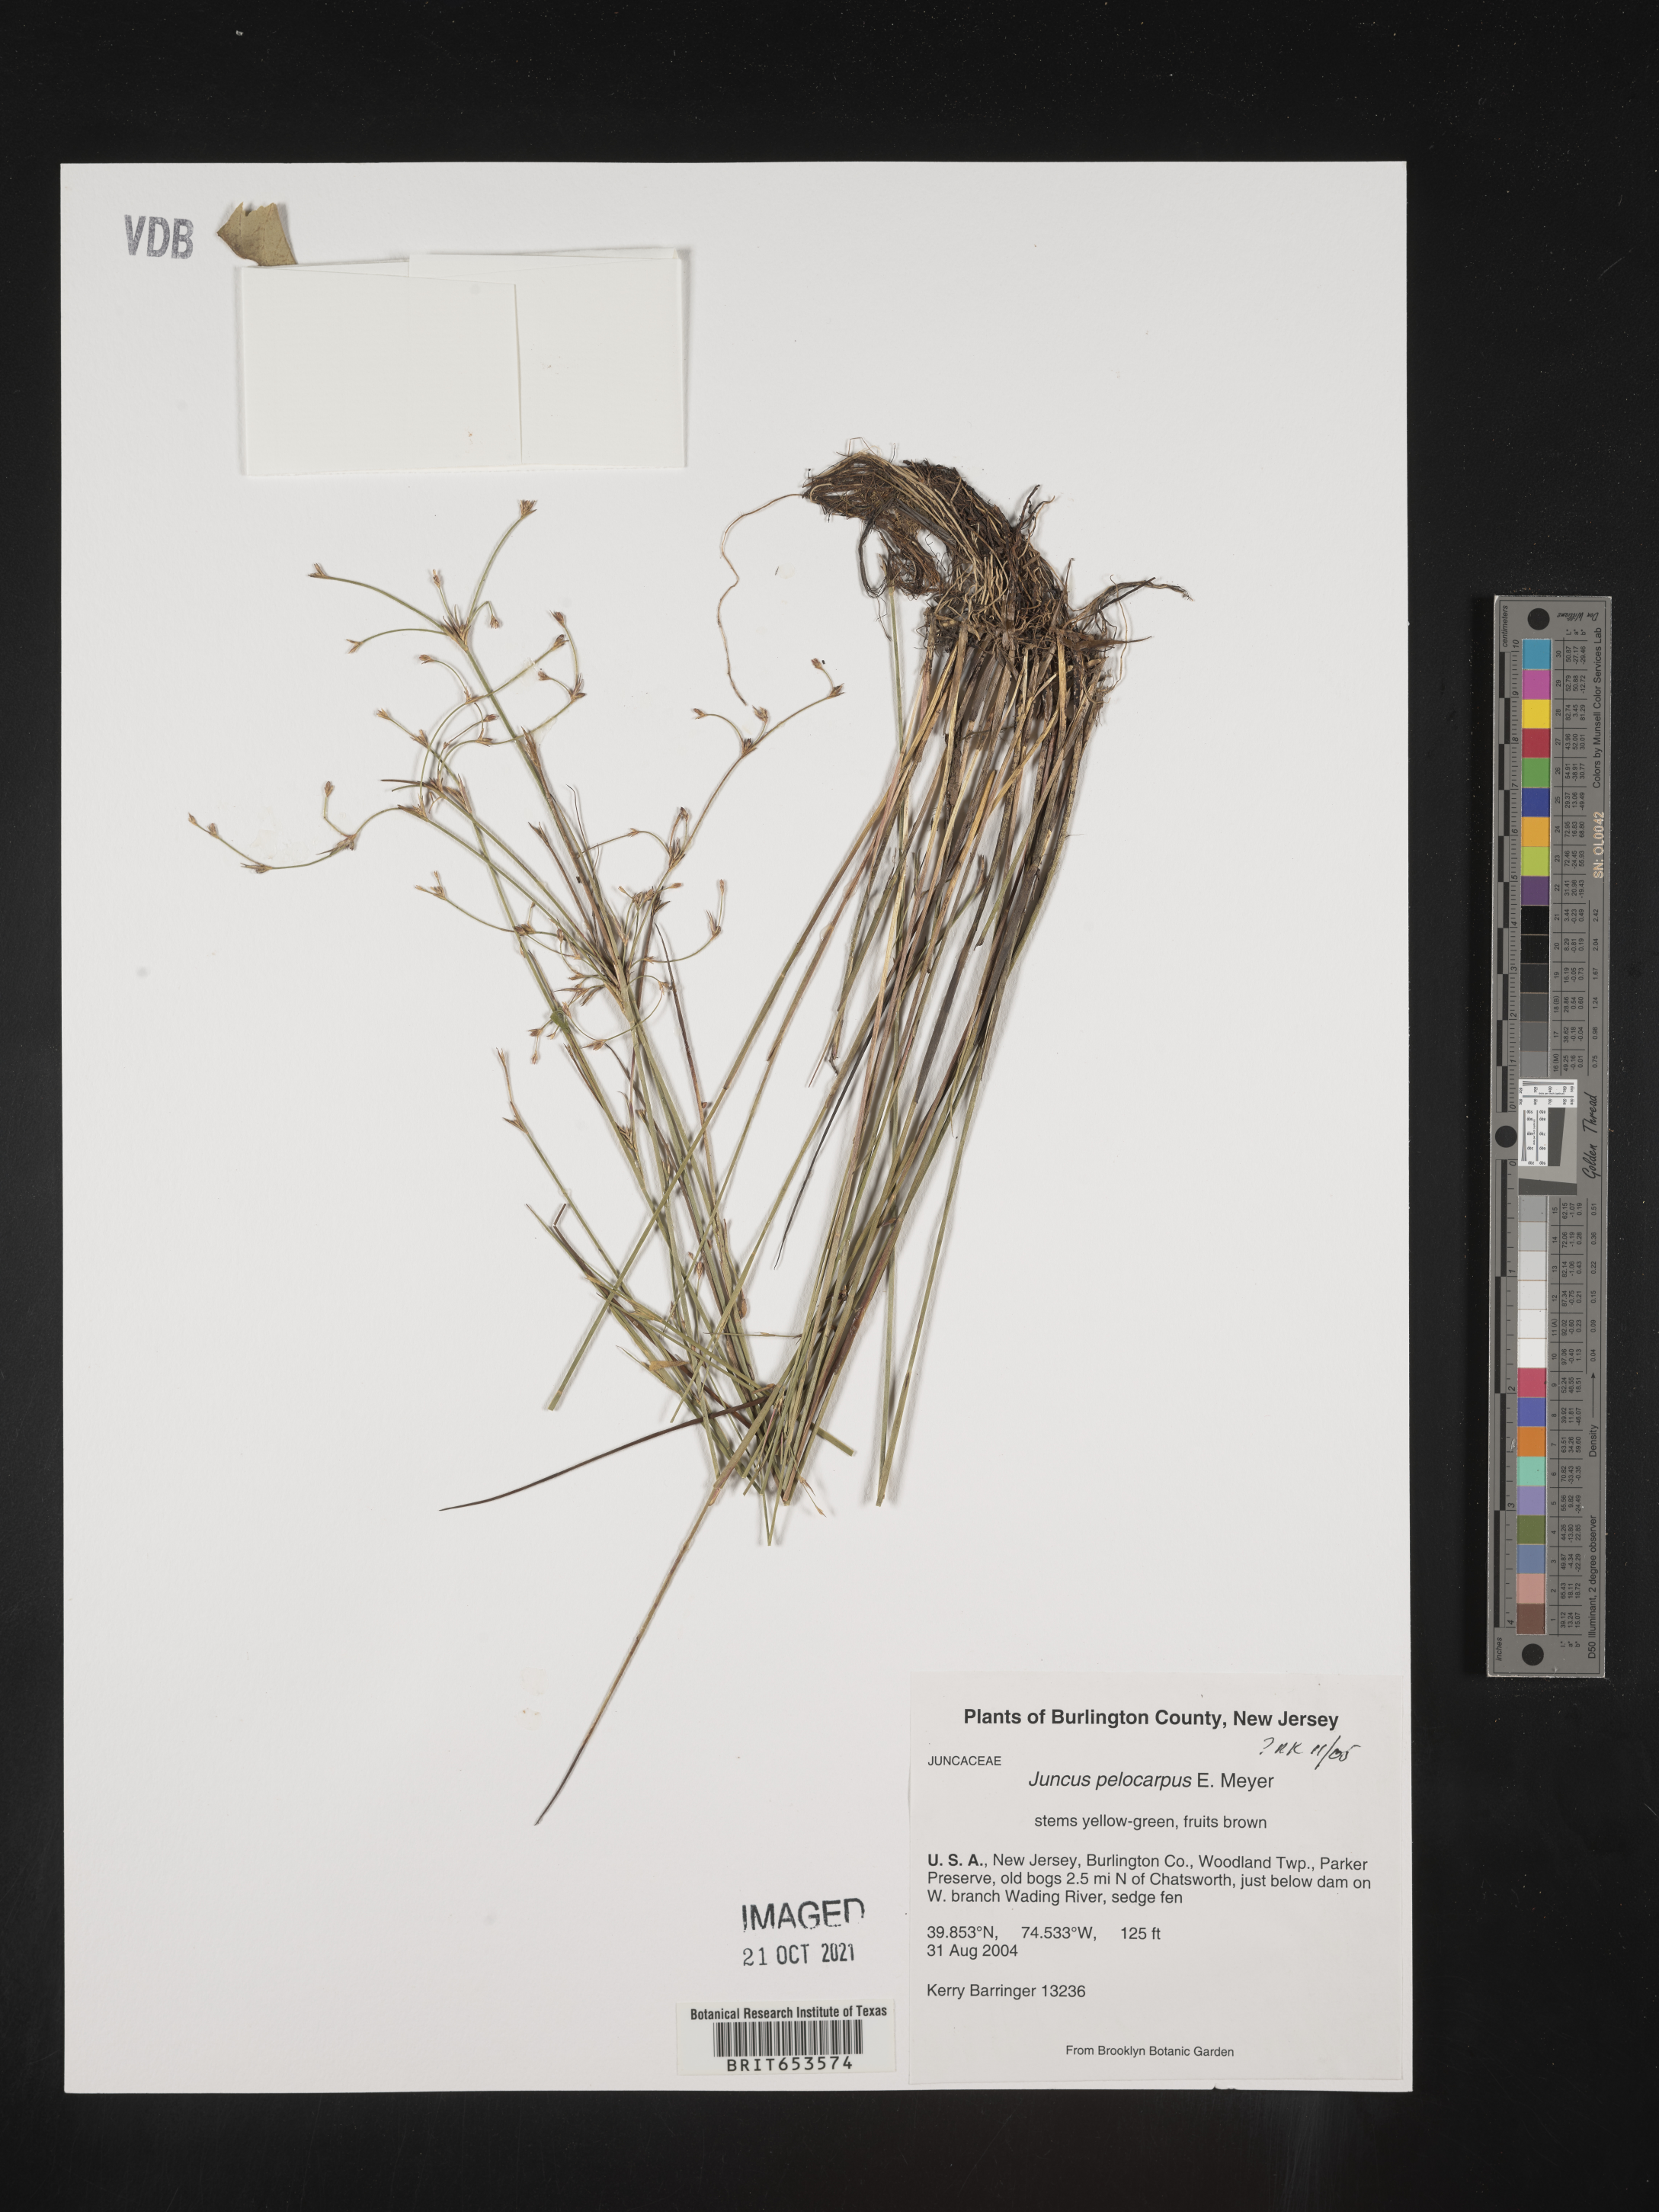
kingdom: Plantae
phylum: Tracheophyta
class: Liliopsida
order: Poales
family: Juncaceae
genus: Juncus
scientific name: Juncus pelocarpus
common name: Brown-fruited rush
